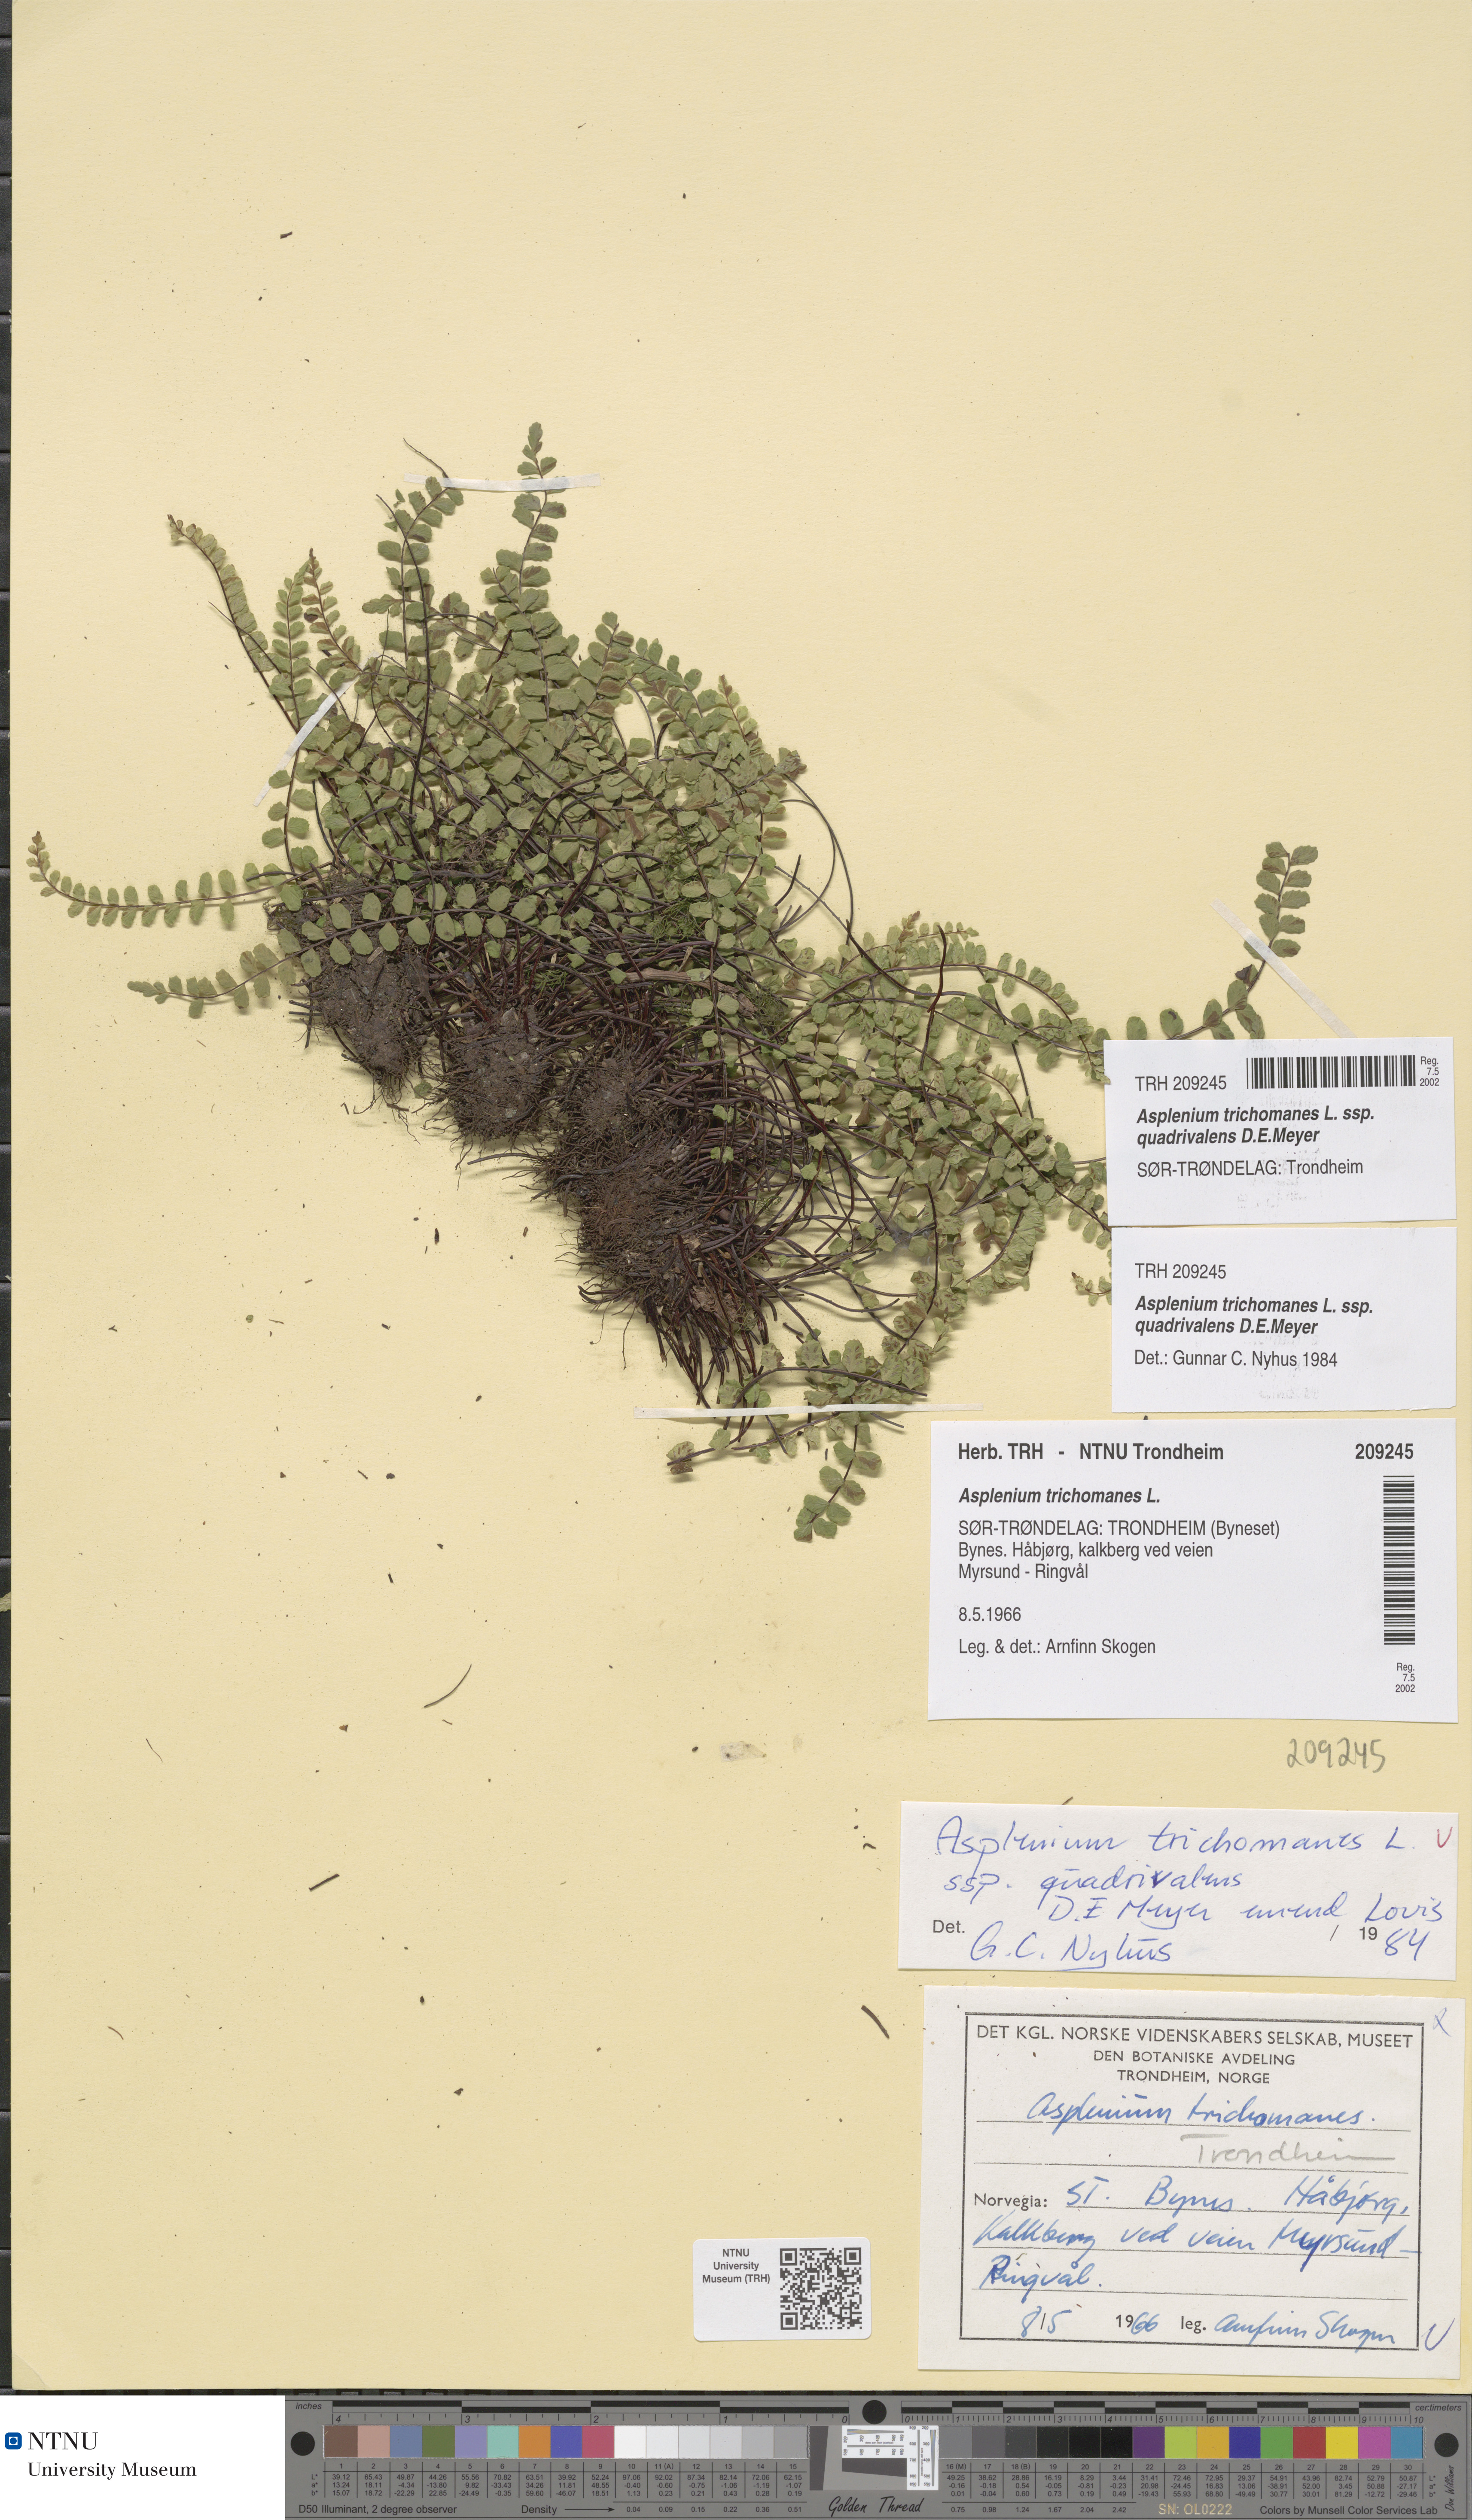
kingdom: Plantae
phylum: Tracheophyta
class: Polypodiopsida
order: Polypodiales
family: Aspleniaceae
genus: Asplenium
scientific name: Asplenium quadrivalens
